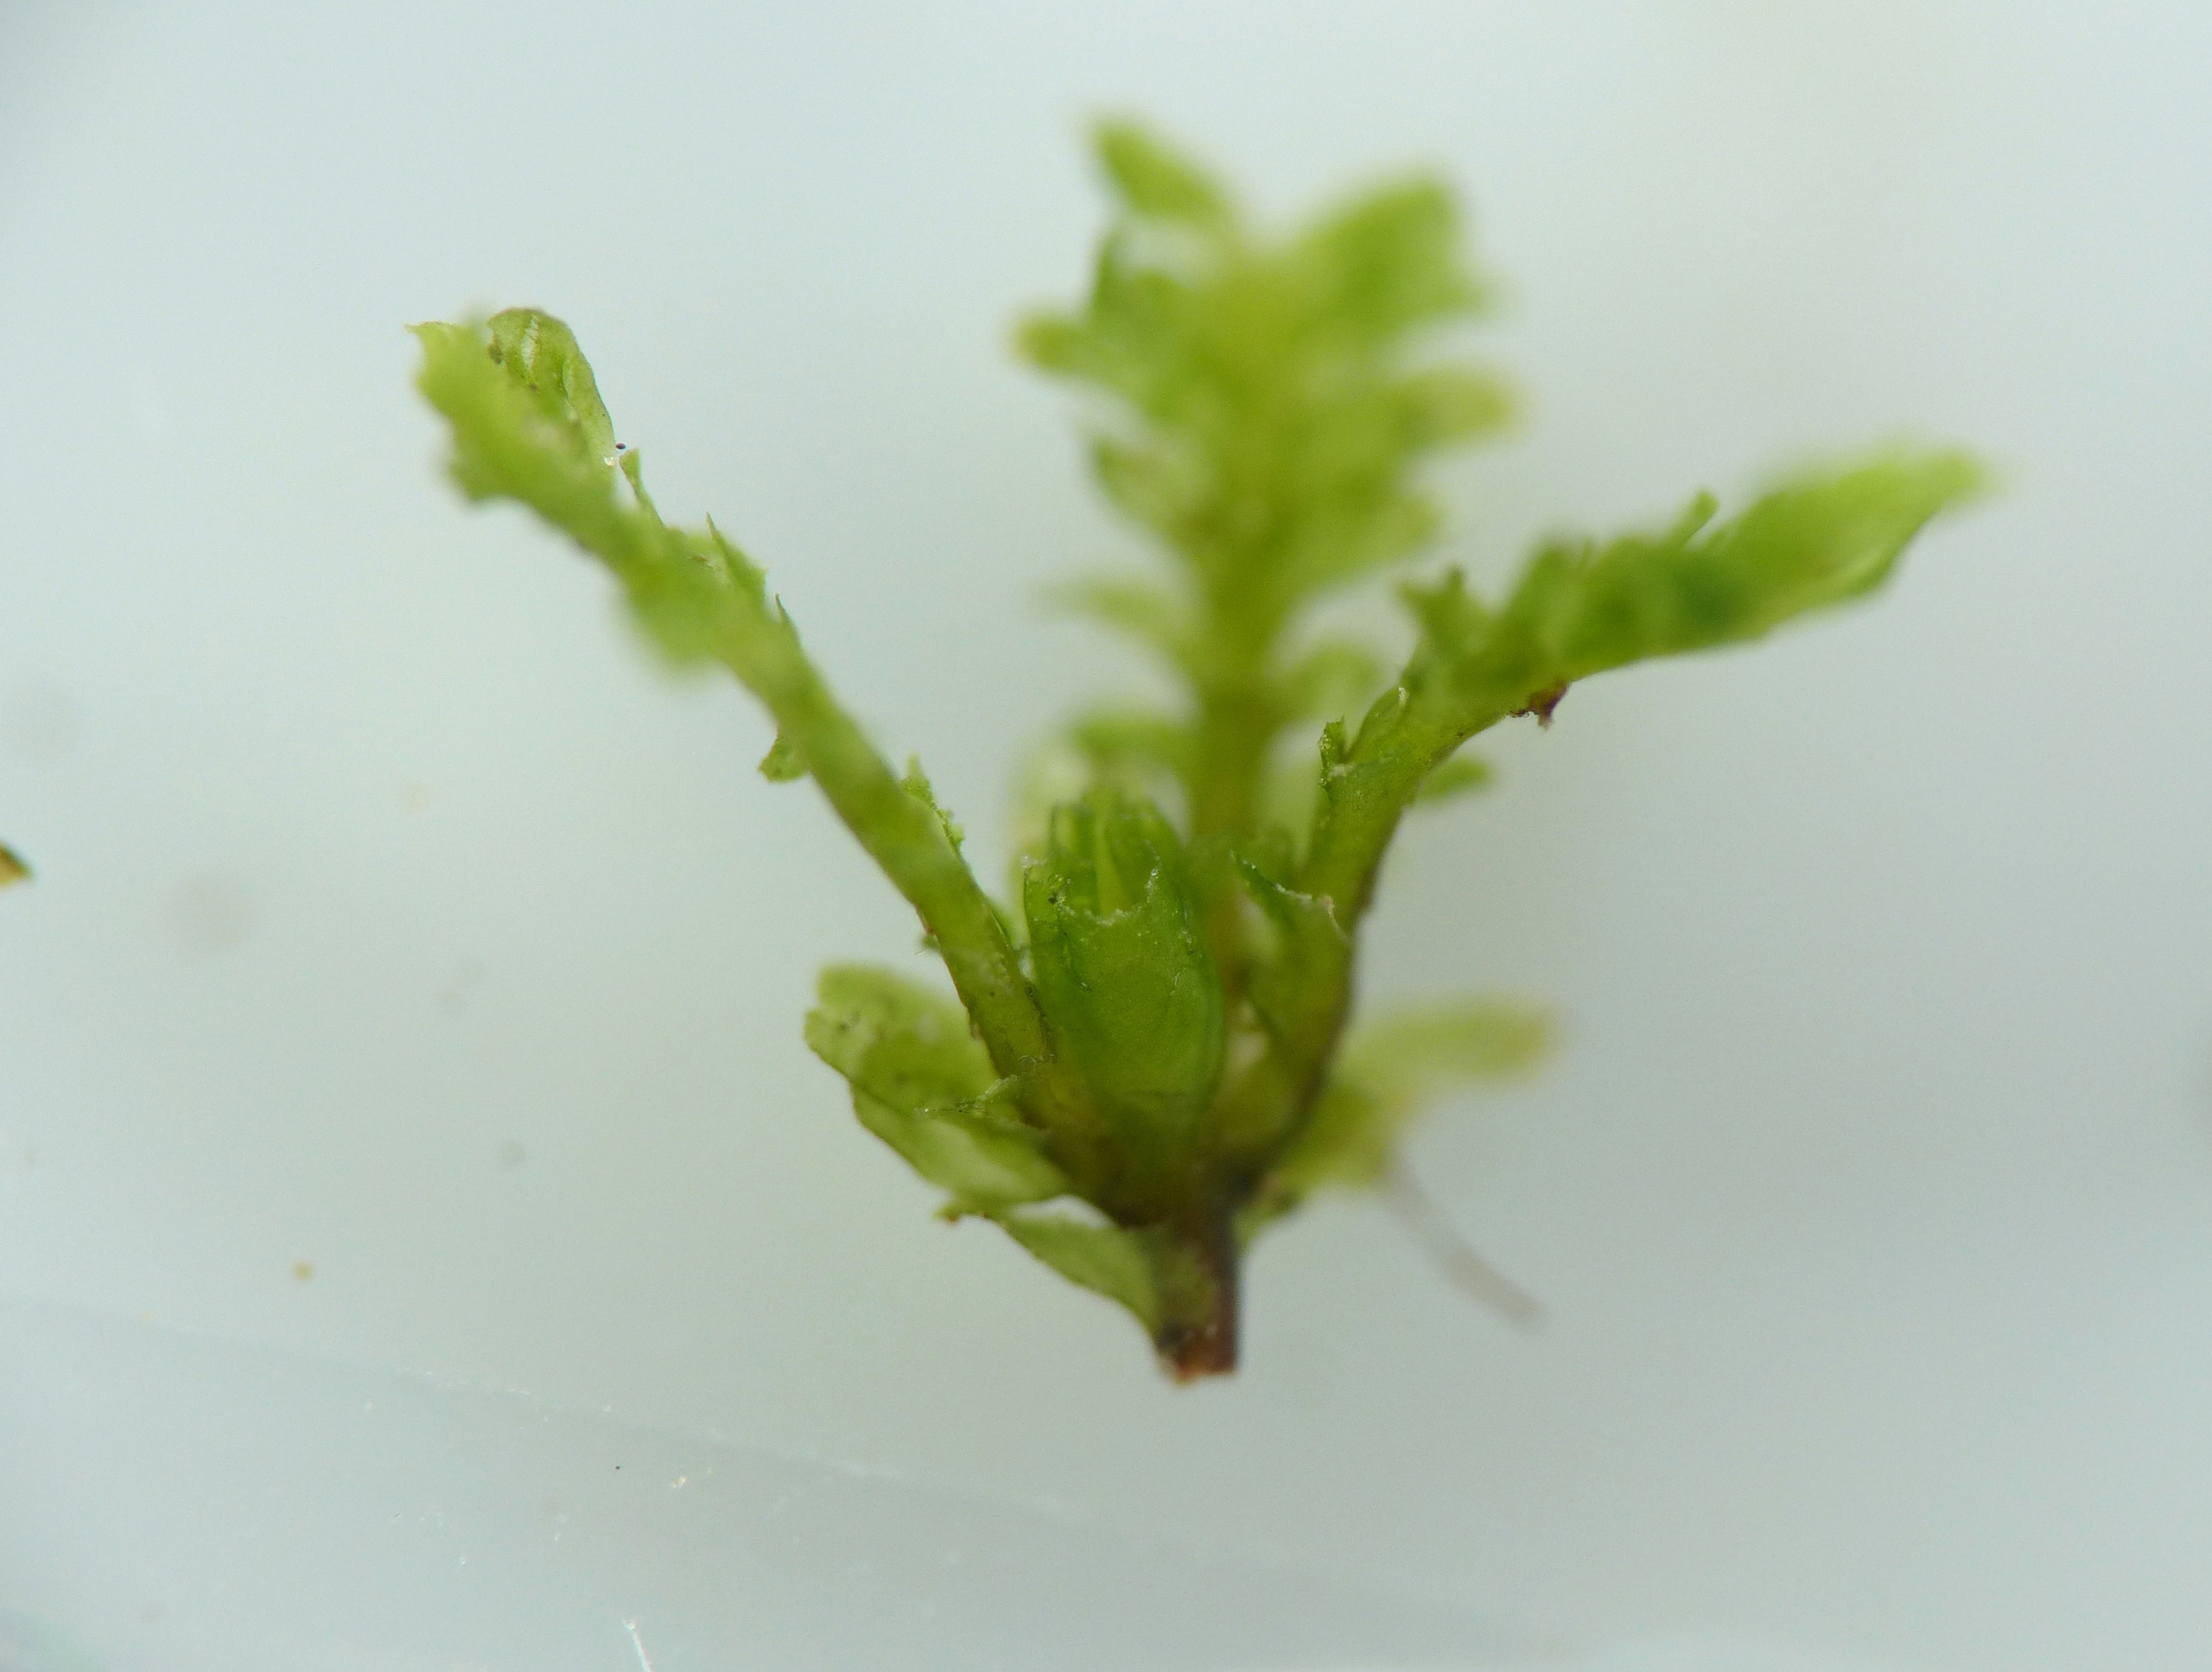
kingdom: Plantae
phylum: Marchantiophyta
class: Jungermanniopsida
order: Jungermanniales
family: Scapaniaceae
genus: Diplophyllum
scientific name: Diplophyllum albicans
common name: Stribet dobbeltblad
